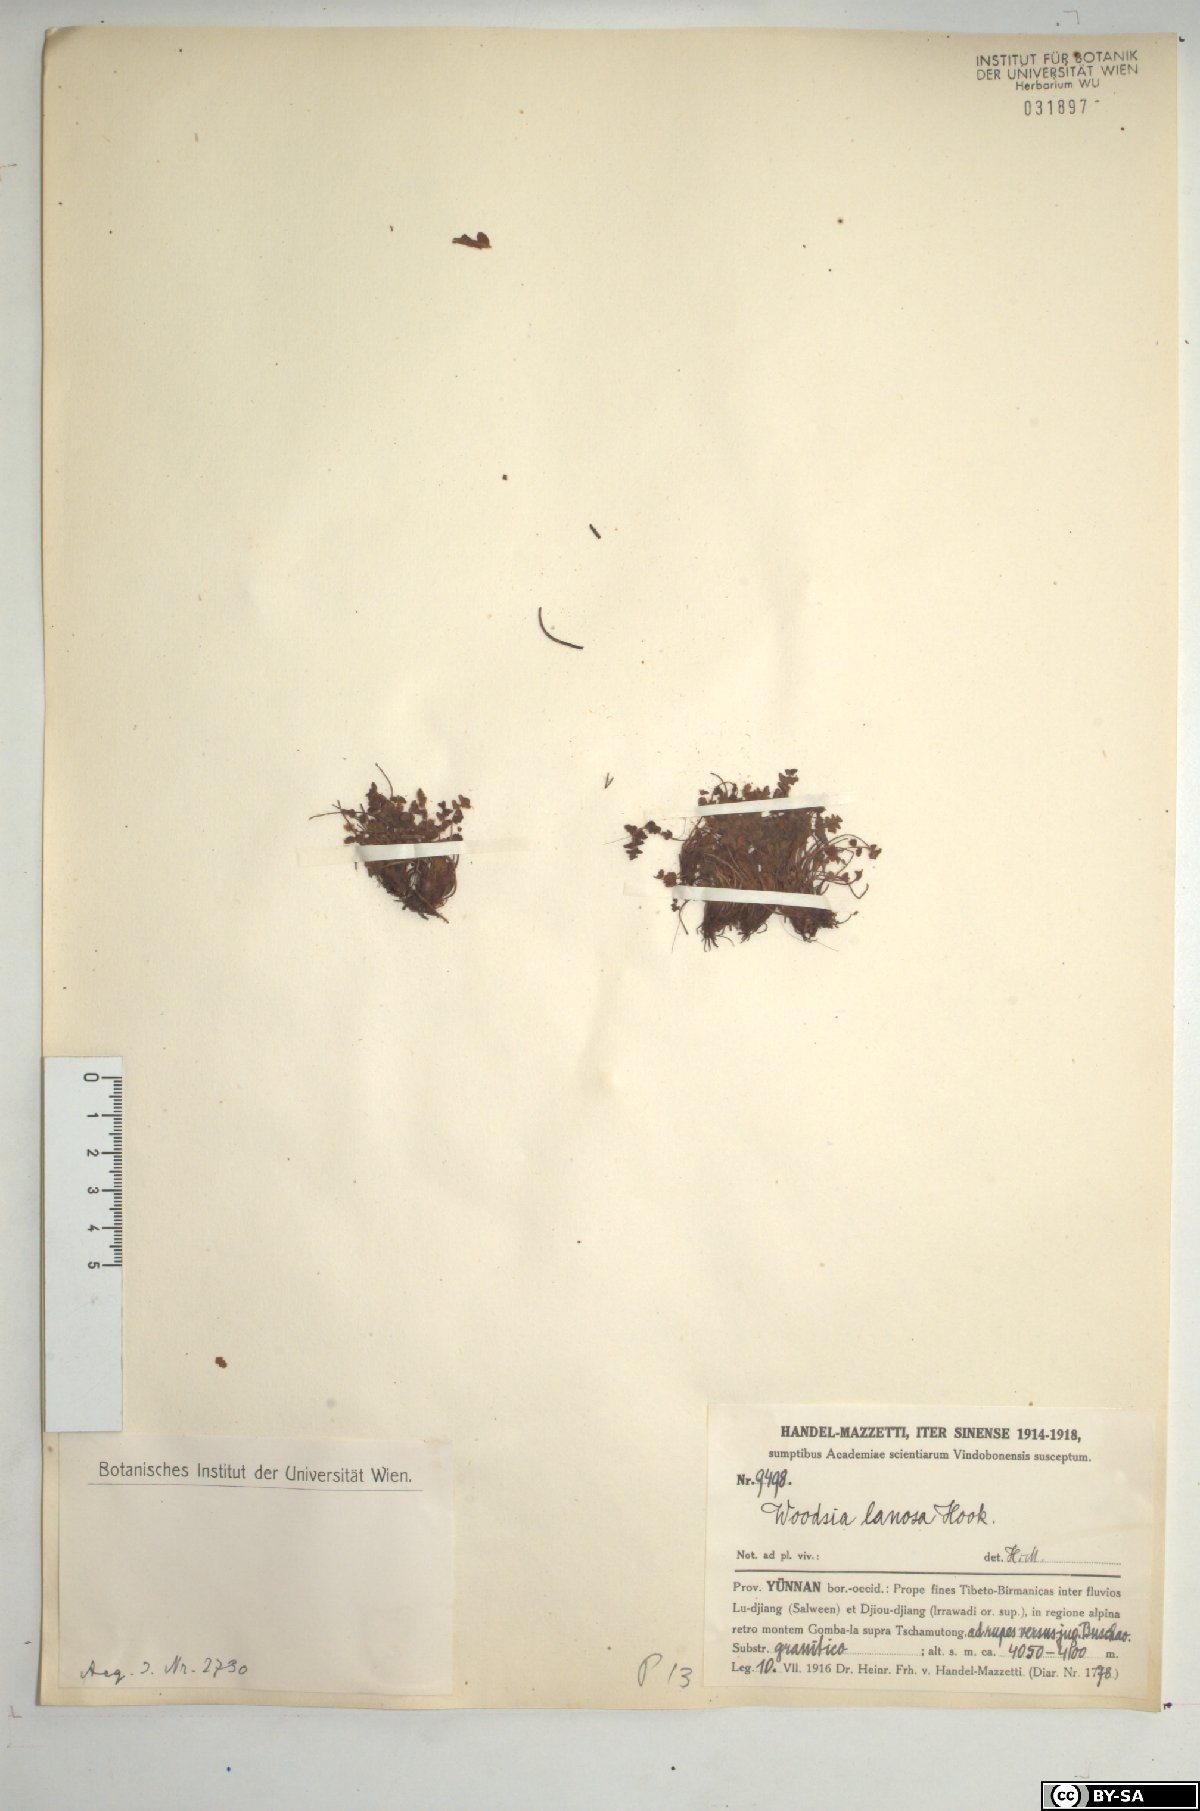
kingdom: Plantae
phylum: Tracheophyta
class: Polypodiopsida
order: Polypodiales
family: Woodsiaceae
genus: Woodsia
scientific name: Woodsia lanosa
